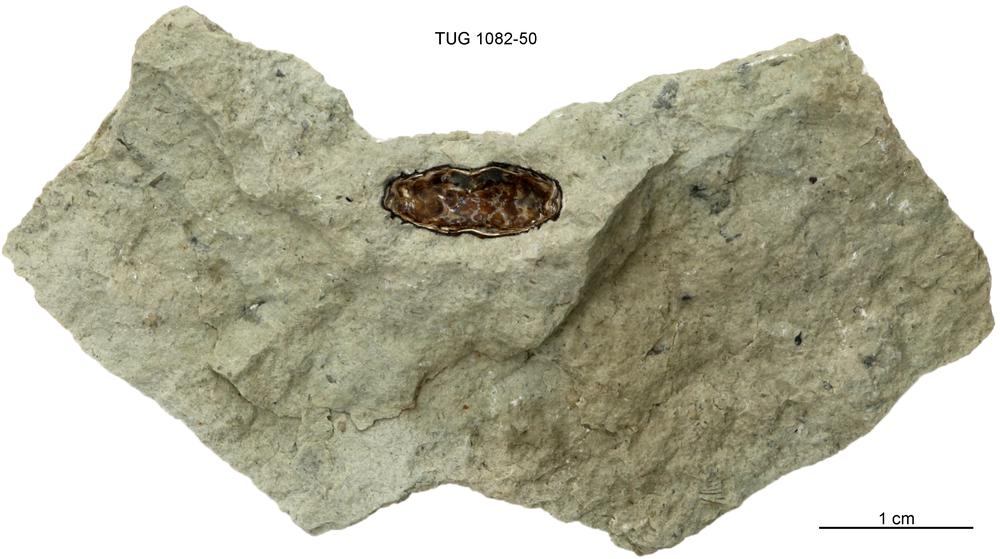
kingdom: Animalia
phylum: Cnidaria
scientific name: Cnidaria
